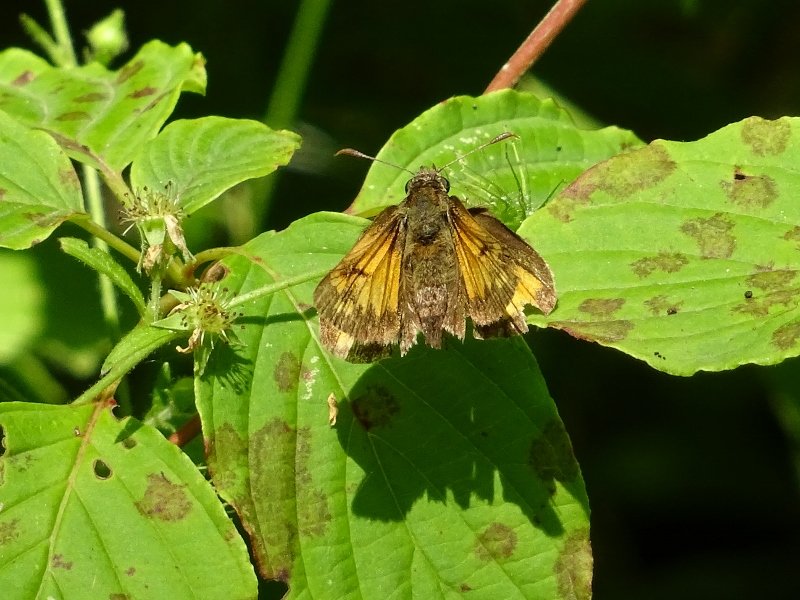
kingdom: Animalia
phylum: Arthropoda
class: Insecta
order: Lepidoptera
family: Hesperiidae
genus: Lon
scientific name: Lon hobomok
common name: Hobomok Skipper
